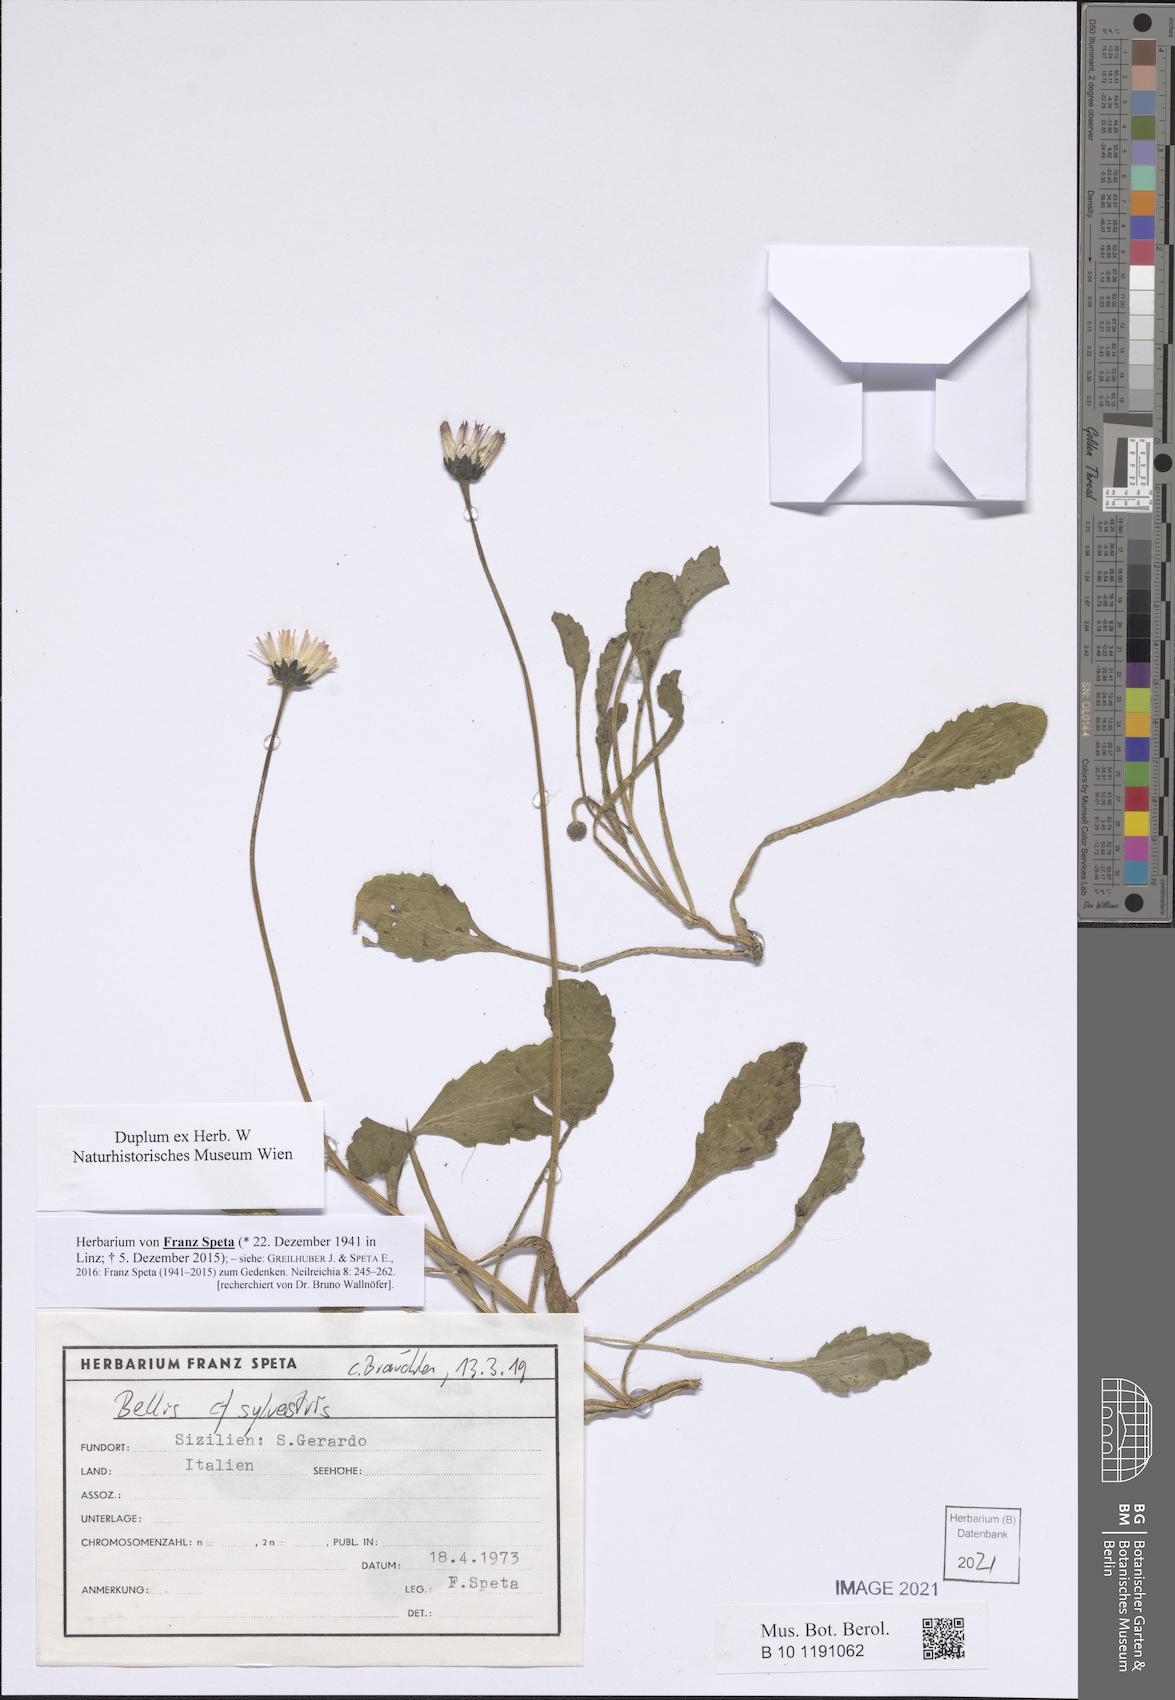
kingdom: Plantae
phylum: Tracheophyta
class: Magnoliopsida
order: Asterales
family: Asteraceae
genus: Bellis
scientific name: Bellis sylvestris
